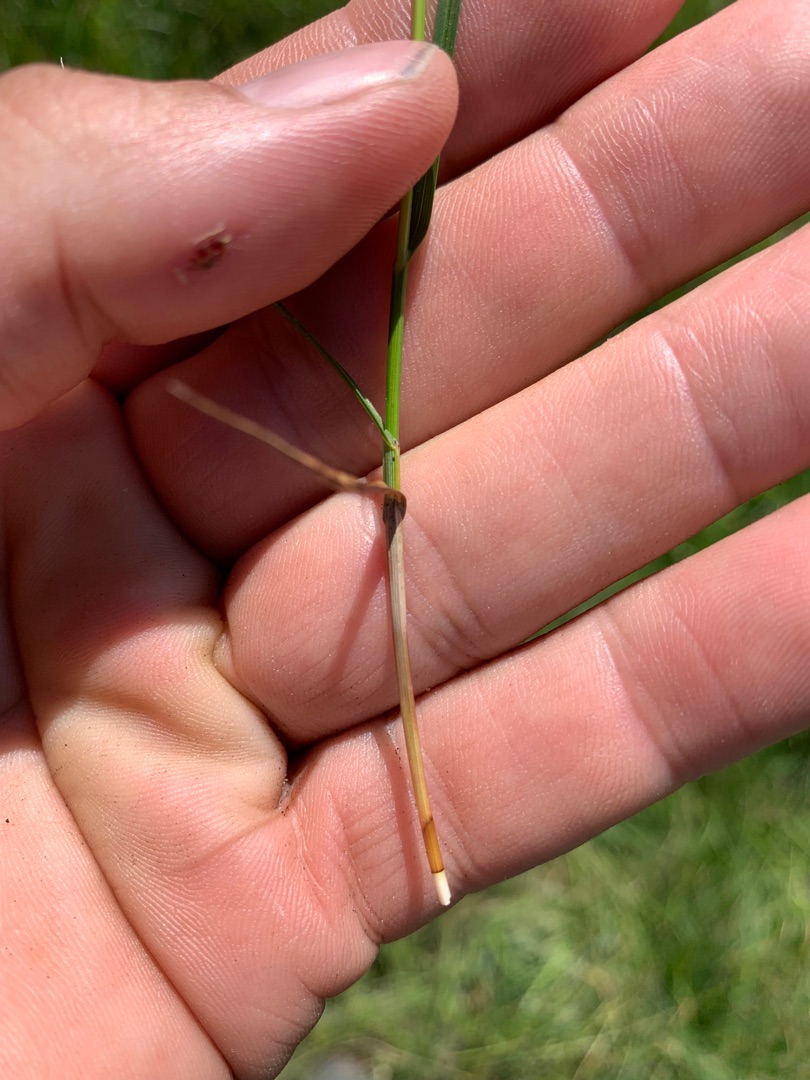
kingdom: Plantae
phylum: Tracheophyta
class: Liliopsida
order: Poales
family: Cyperaceae
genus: Carex
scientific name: Carex disticha
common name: Toradet star
